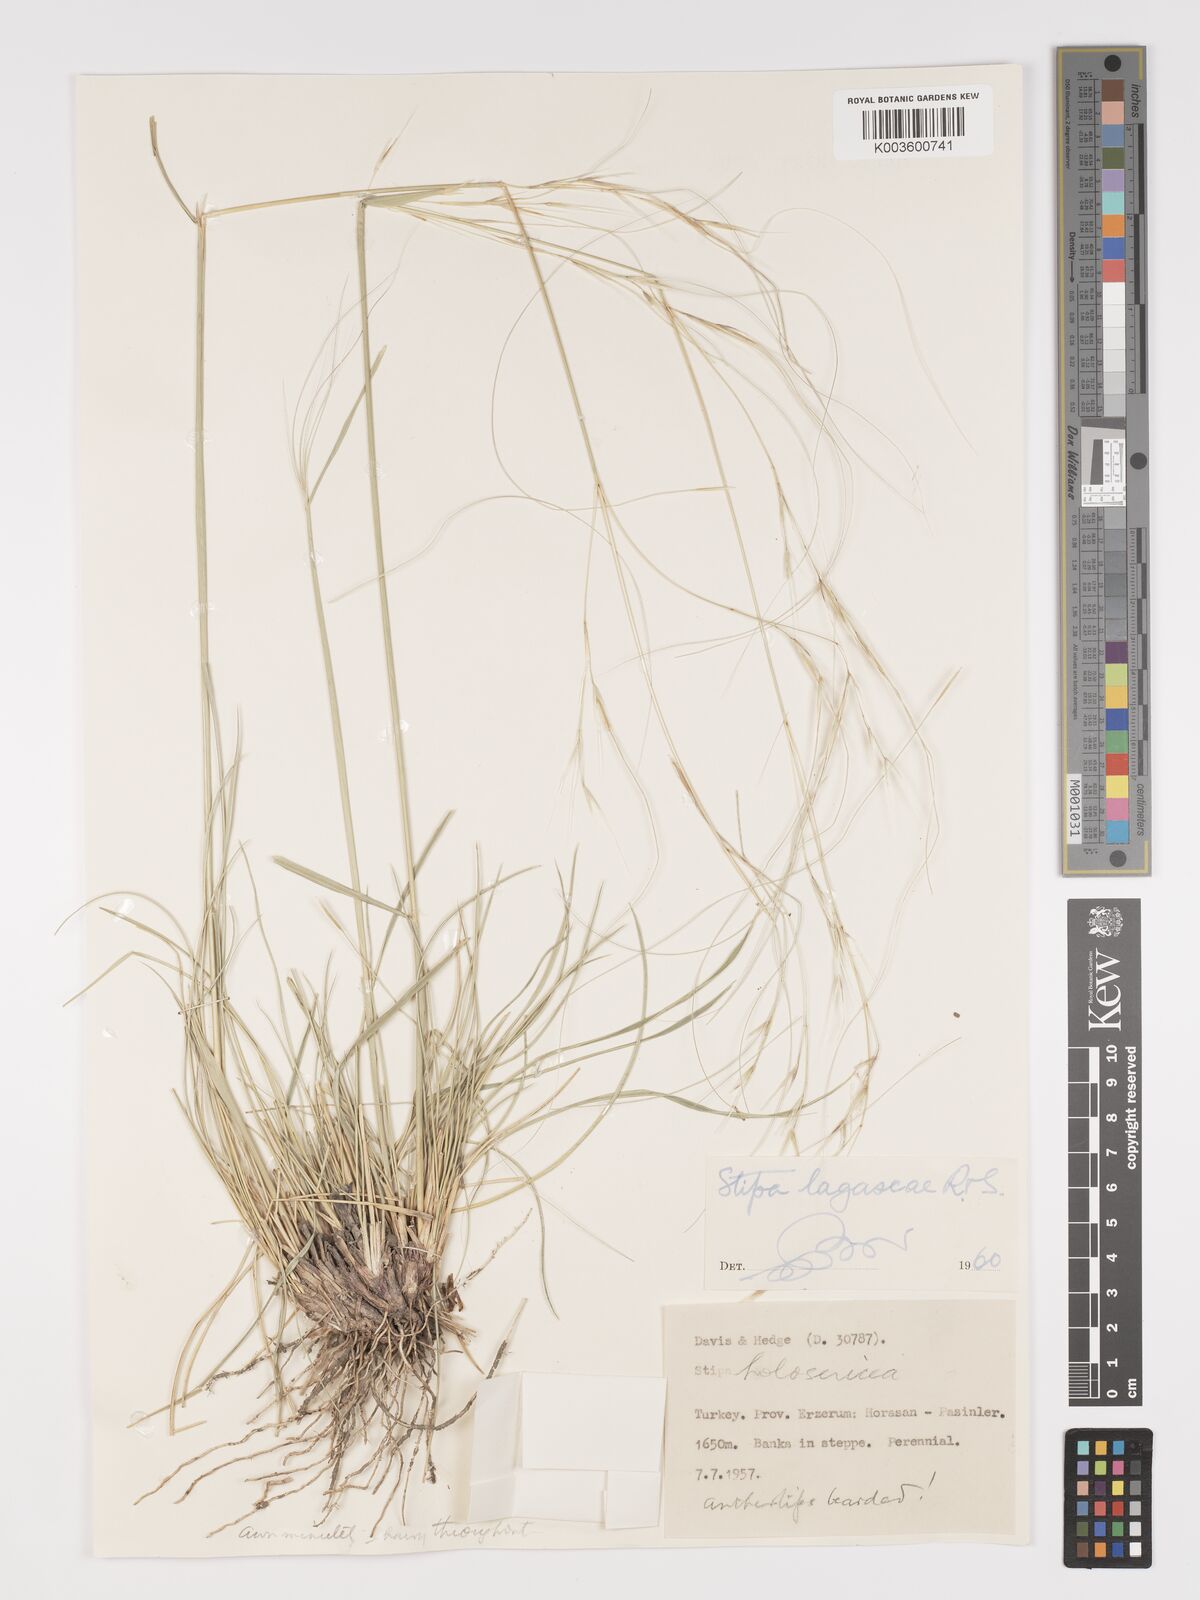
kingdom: Plantae
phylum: Tracheophyta
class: Liliopsida
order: Poales
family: Poaceae
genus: Stipa
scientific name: Stipa lagascae
